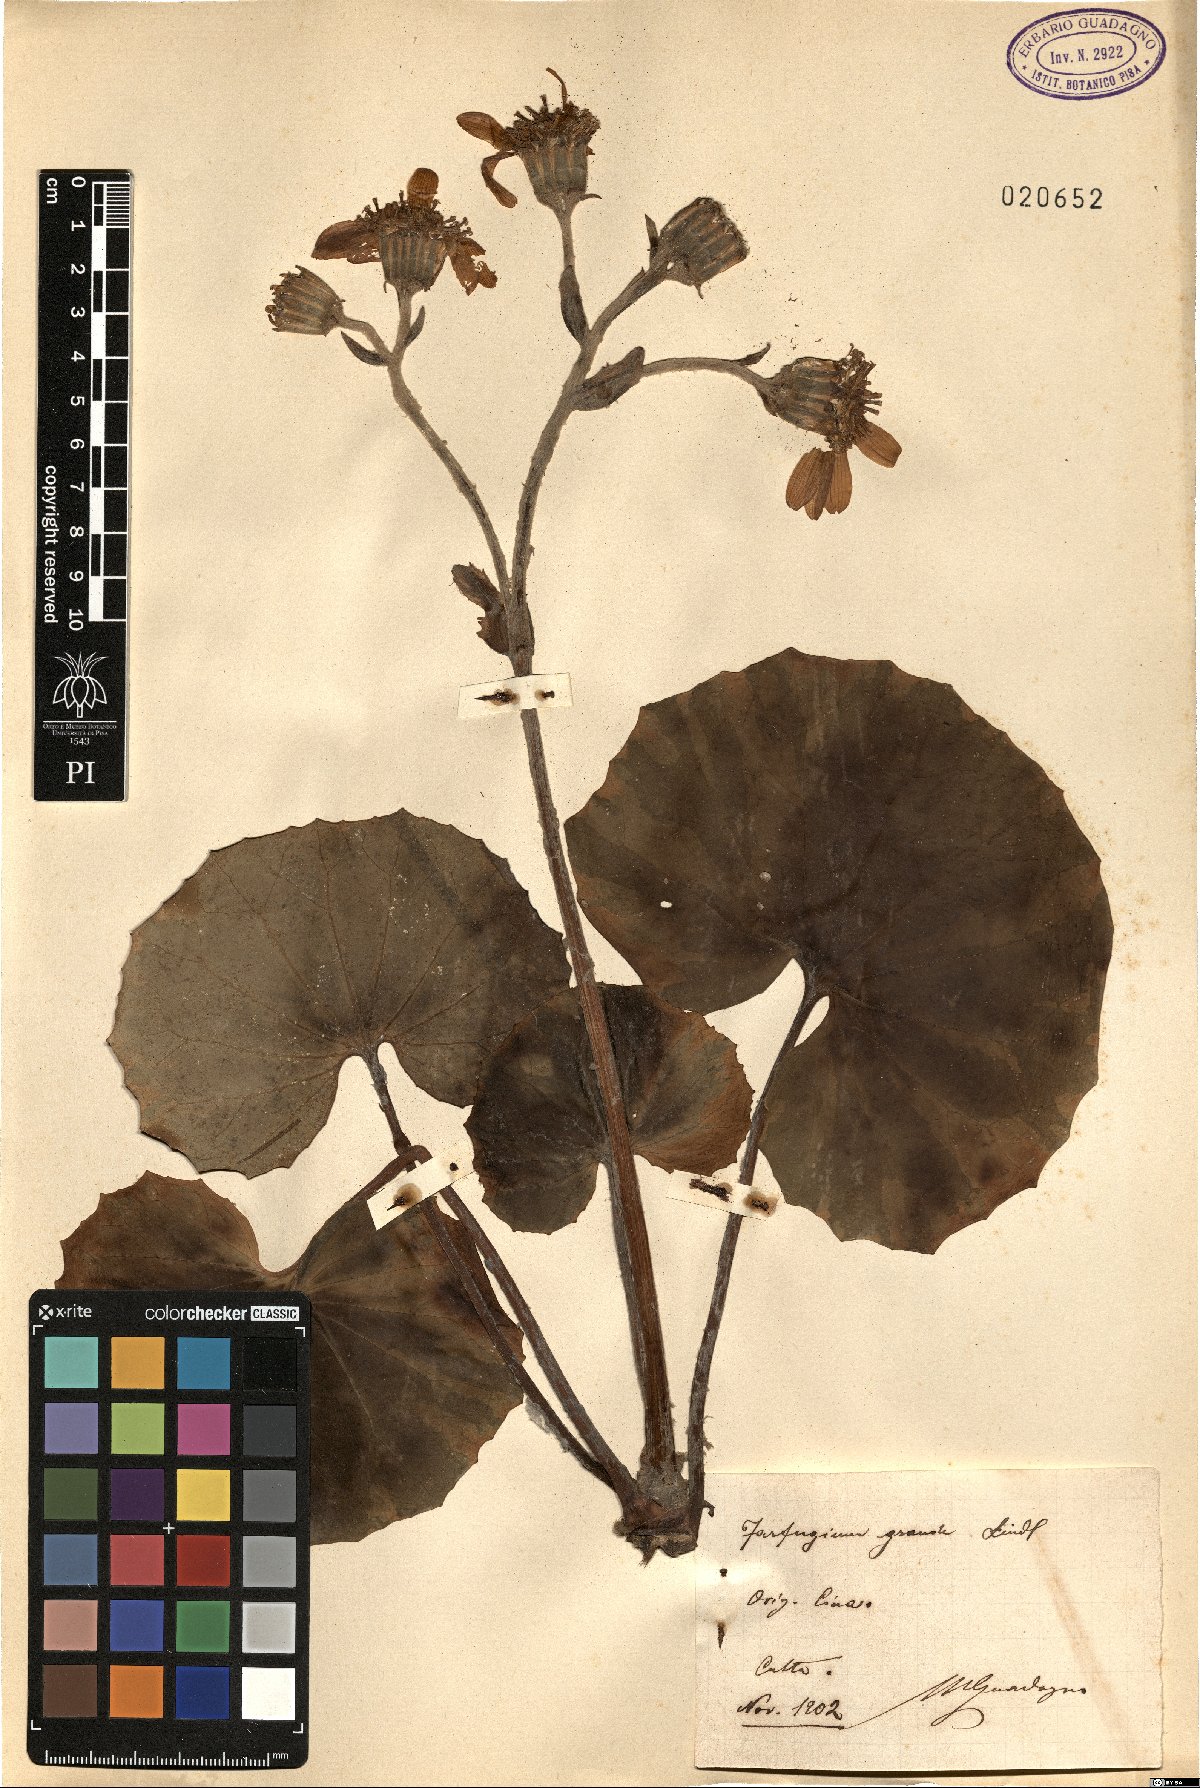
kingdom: Plantae
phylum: Tracheophyta
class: Magnoliopsida
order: Asterales
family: Asteraceae
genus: Farfugium
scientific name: Farfugium japonicum
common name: Leopardplant
